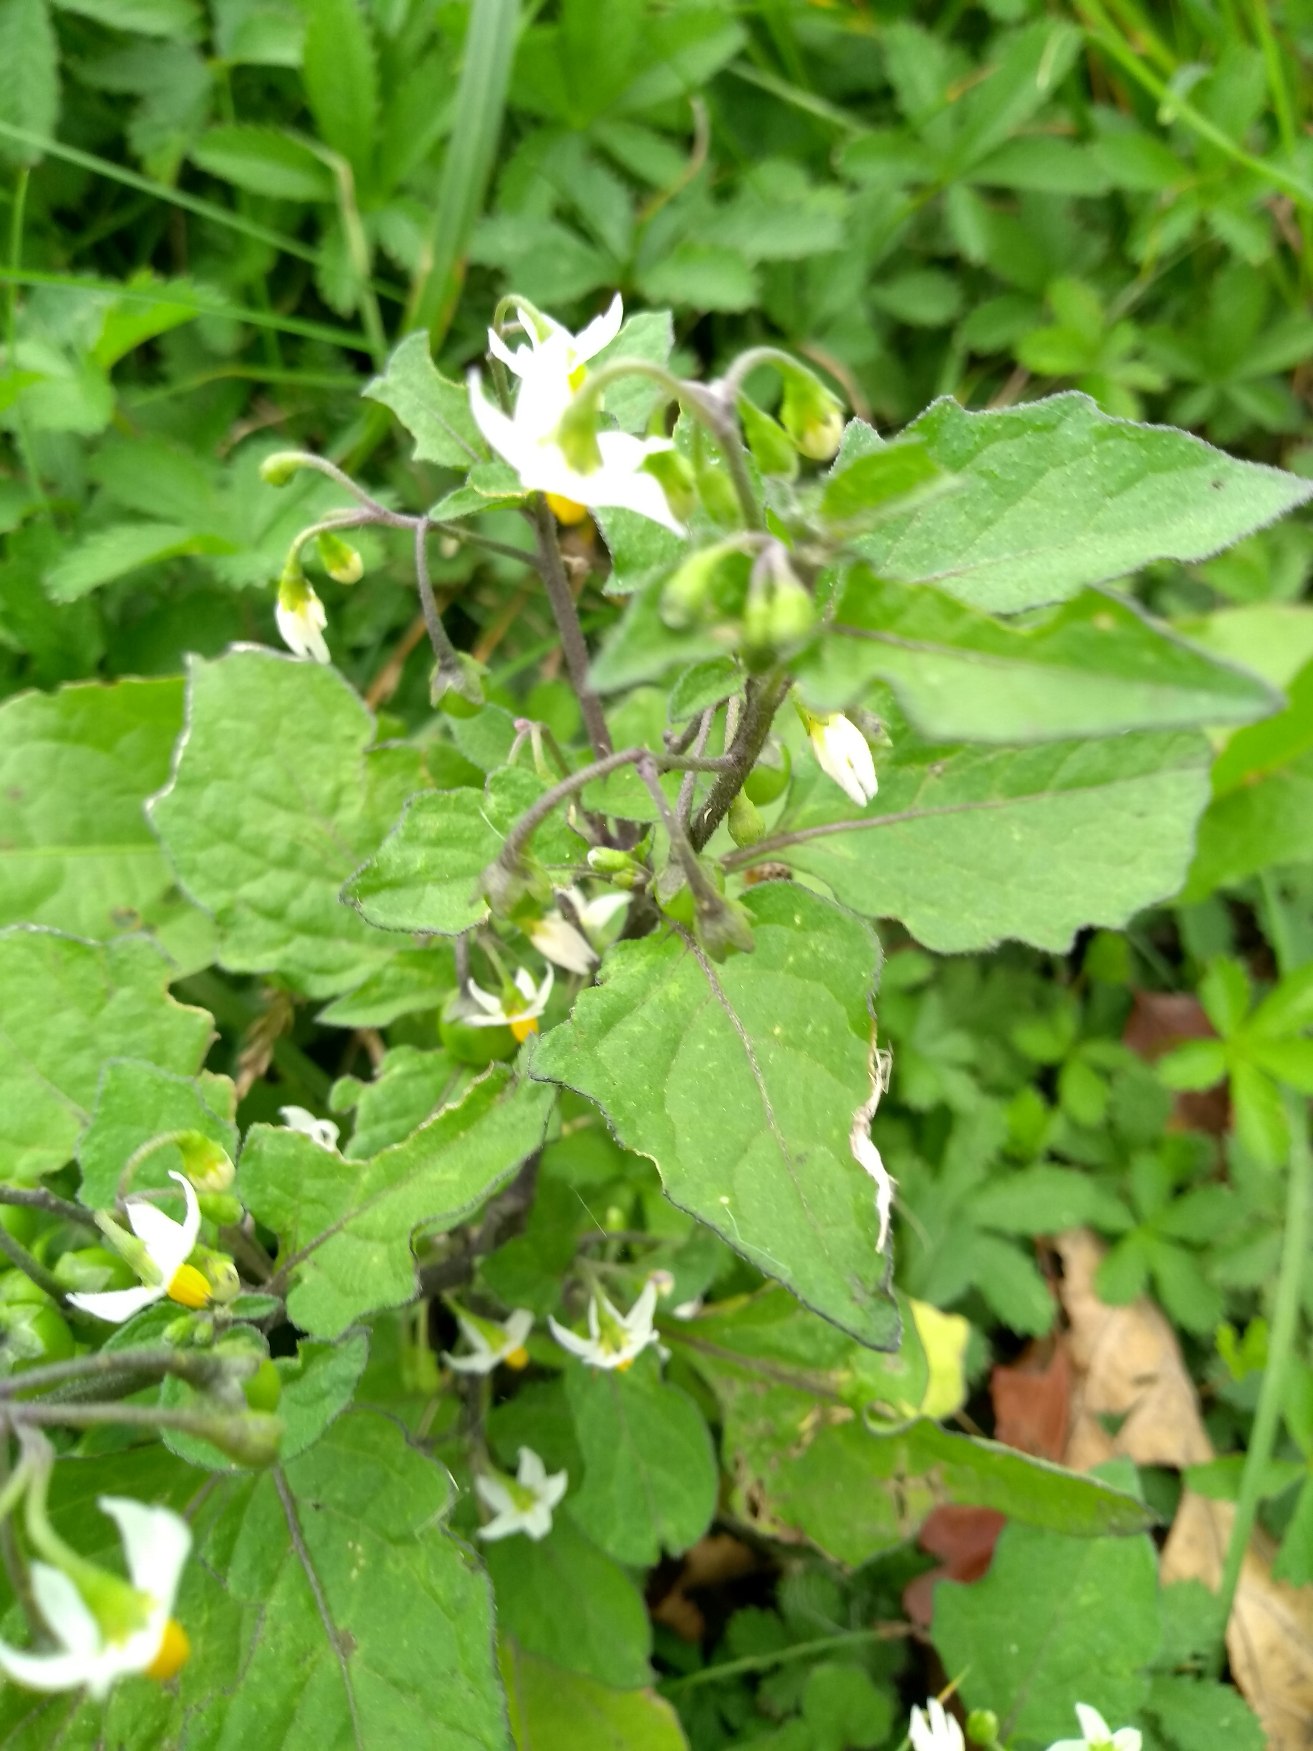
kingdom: Plantae
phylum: Tracheophyta
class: Magnoliopsida
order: Solanales
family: Solanaceae
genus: Solanum
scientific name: Solanum nigrum
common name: Sort natskygge
